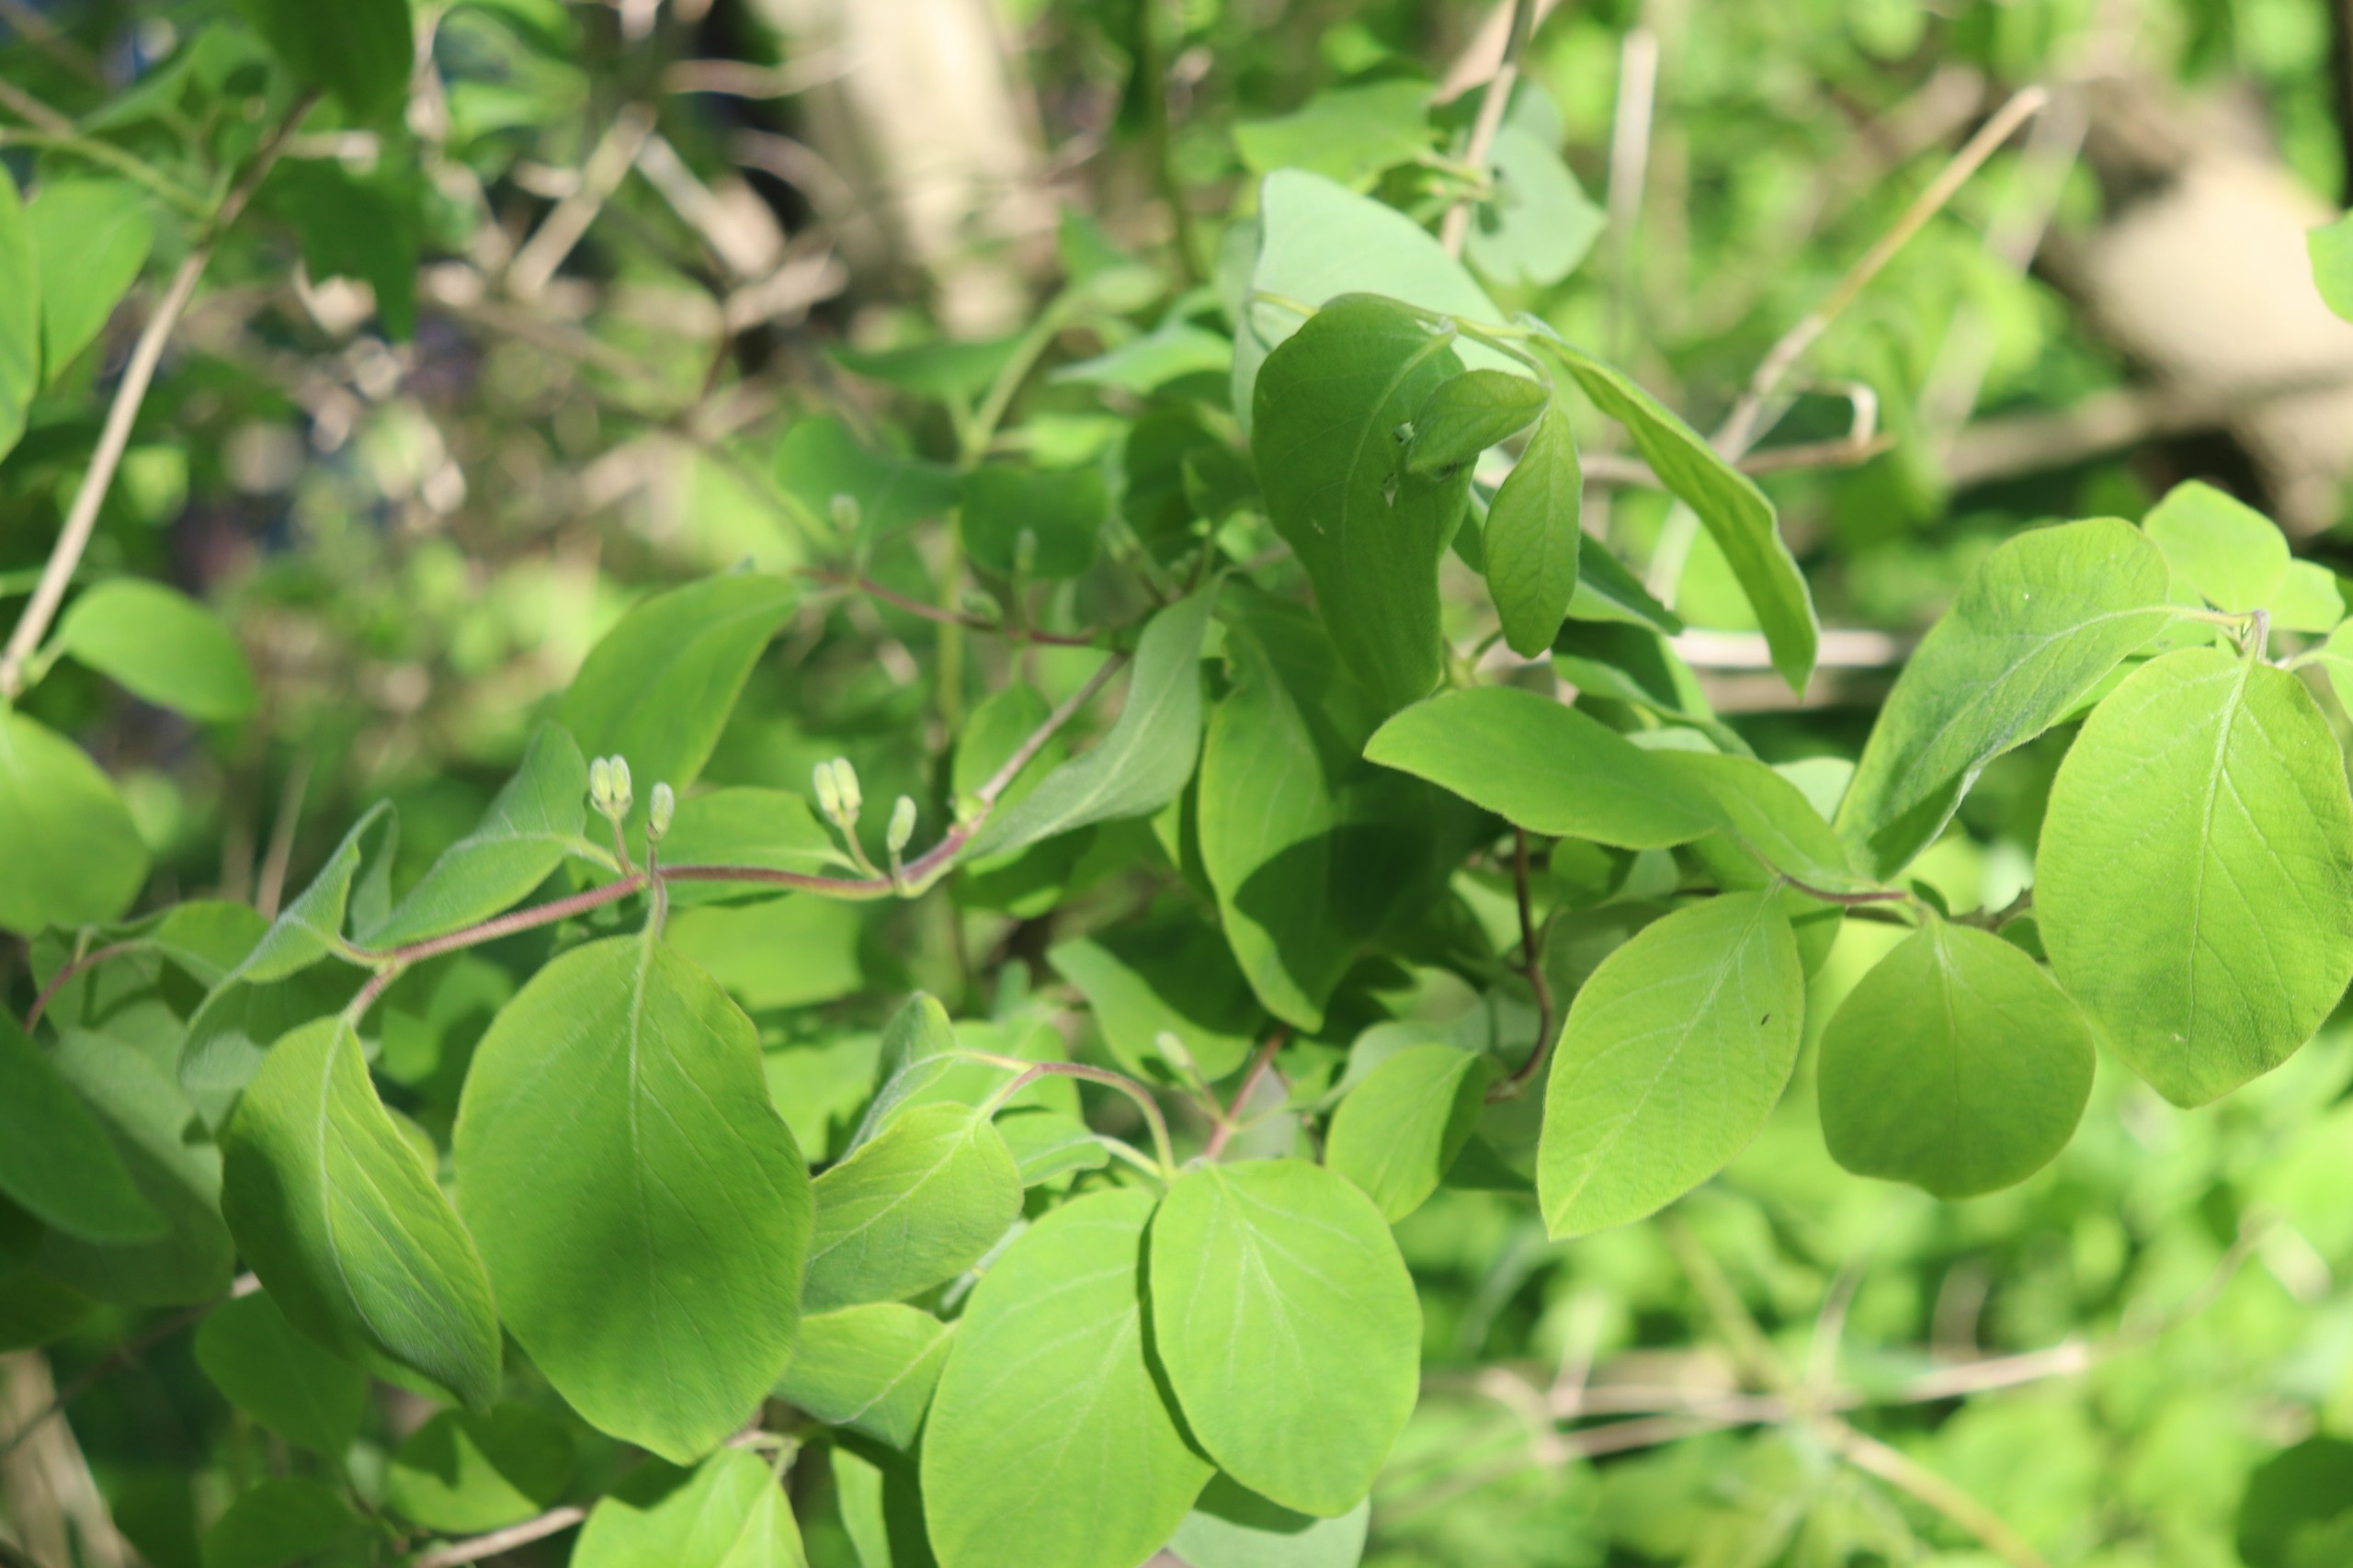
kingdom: Plantae
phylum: Tracheophyta
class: Magnoliopsida
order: Dipsacales
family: Caprifoliaceae
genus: Lonicera
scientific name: Lonicera xylosteum
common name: Dunet gedeblad
